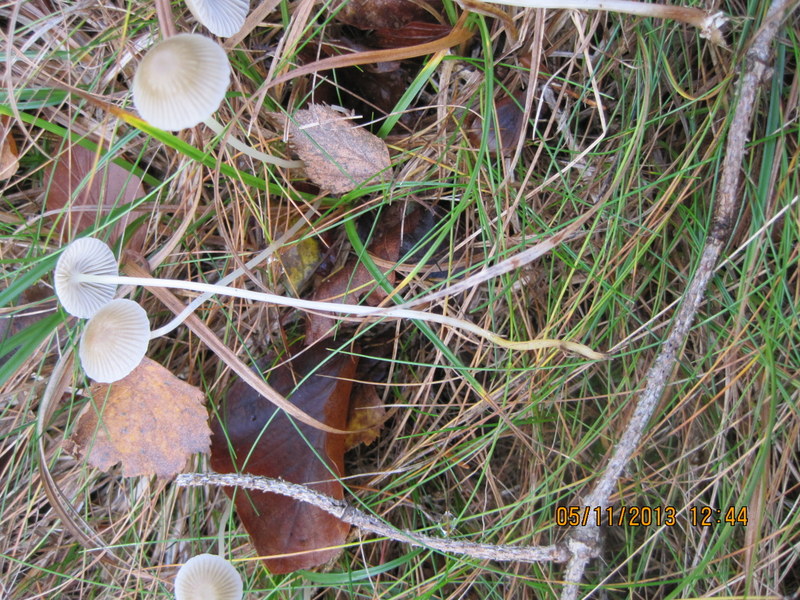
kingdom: Fungi
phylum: Basidiomycota
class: Agaricomycetes
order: Agaricales
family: Mycenaceae
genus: Mycena
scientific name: Mycena epipterygia
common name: gulstokket huesvamp
